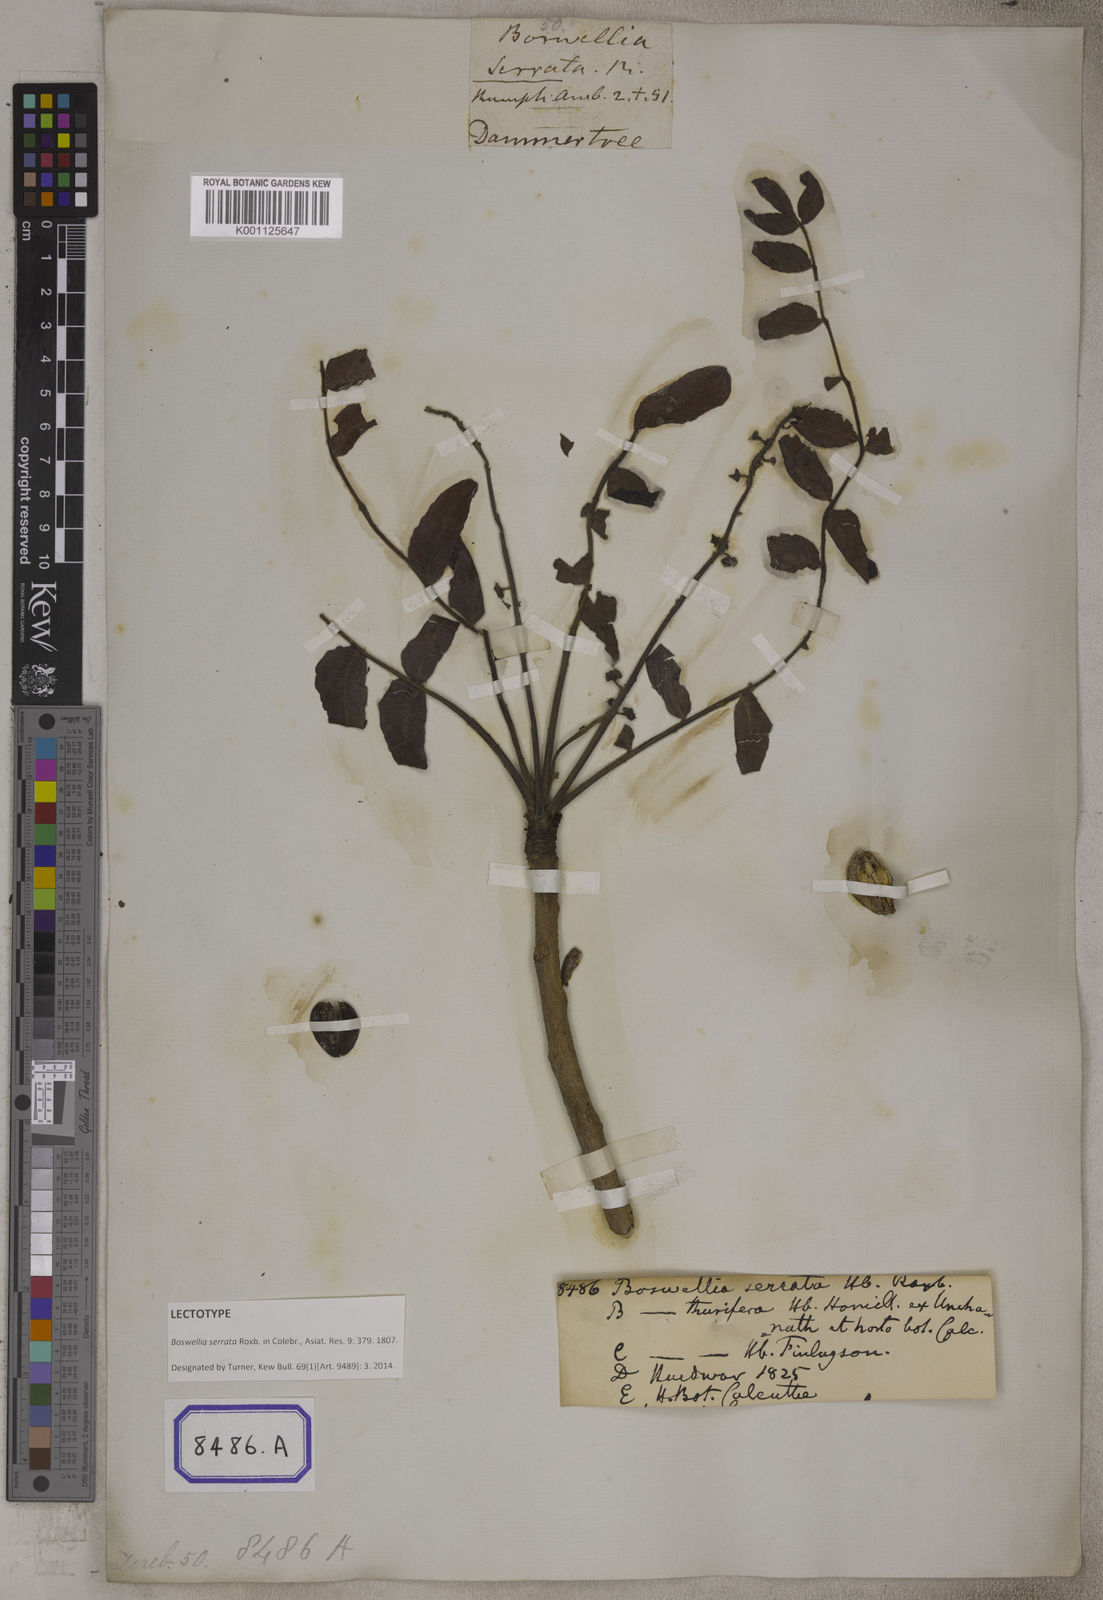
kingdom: Plantae
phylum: Tracheophyta
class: Magnoliopsida
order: Sapindales
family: Burseraceae
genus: Boswellia
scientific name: Boswellia serrata
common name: Boswellia
